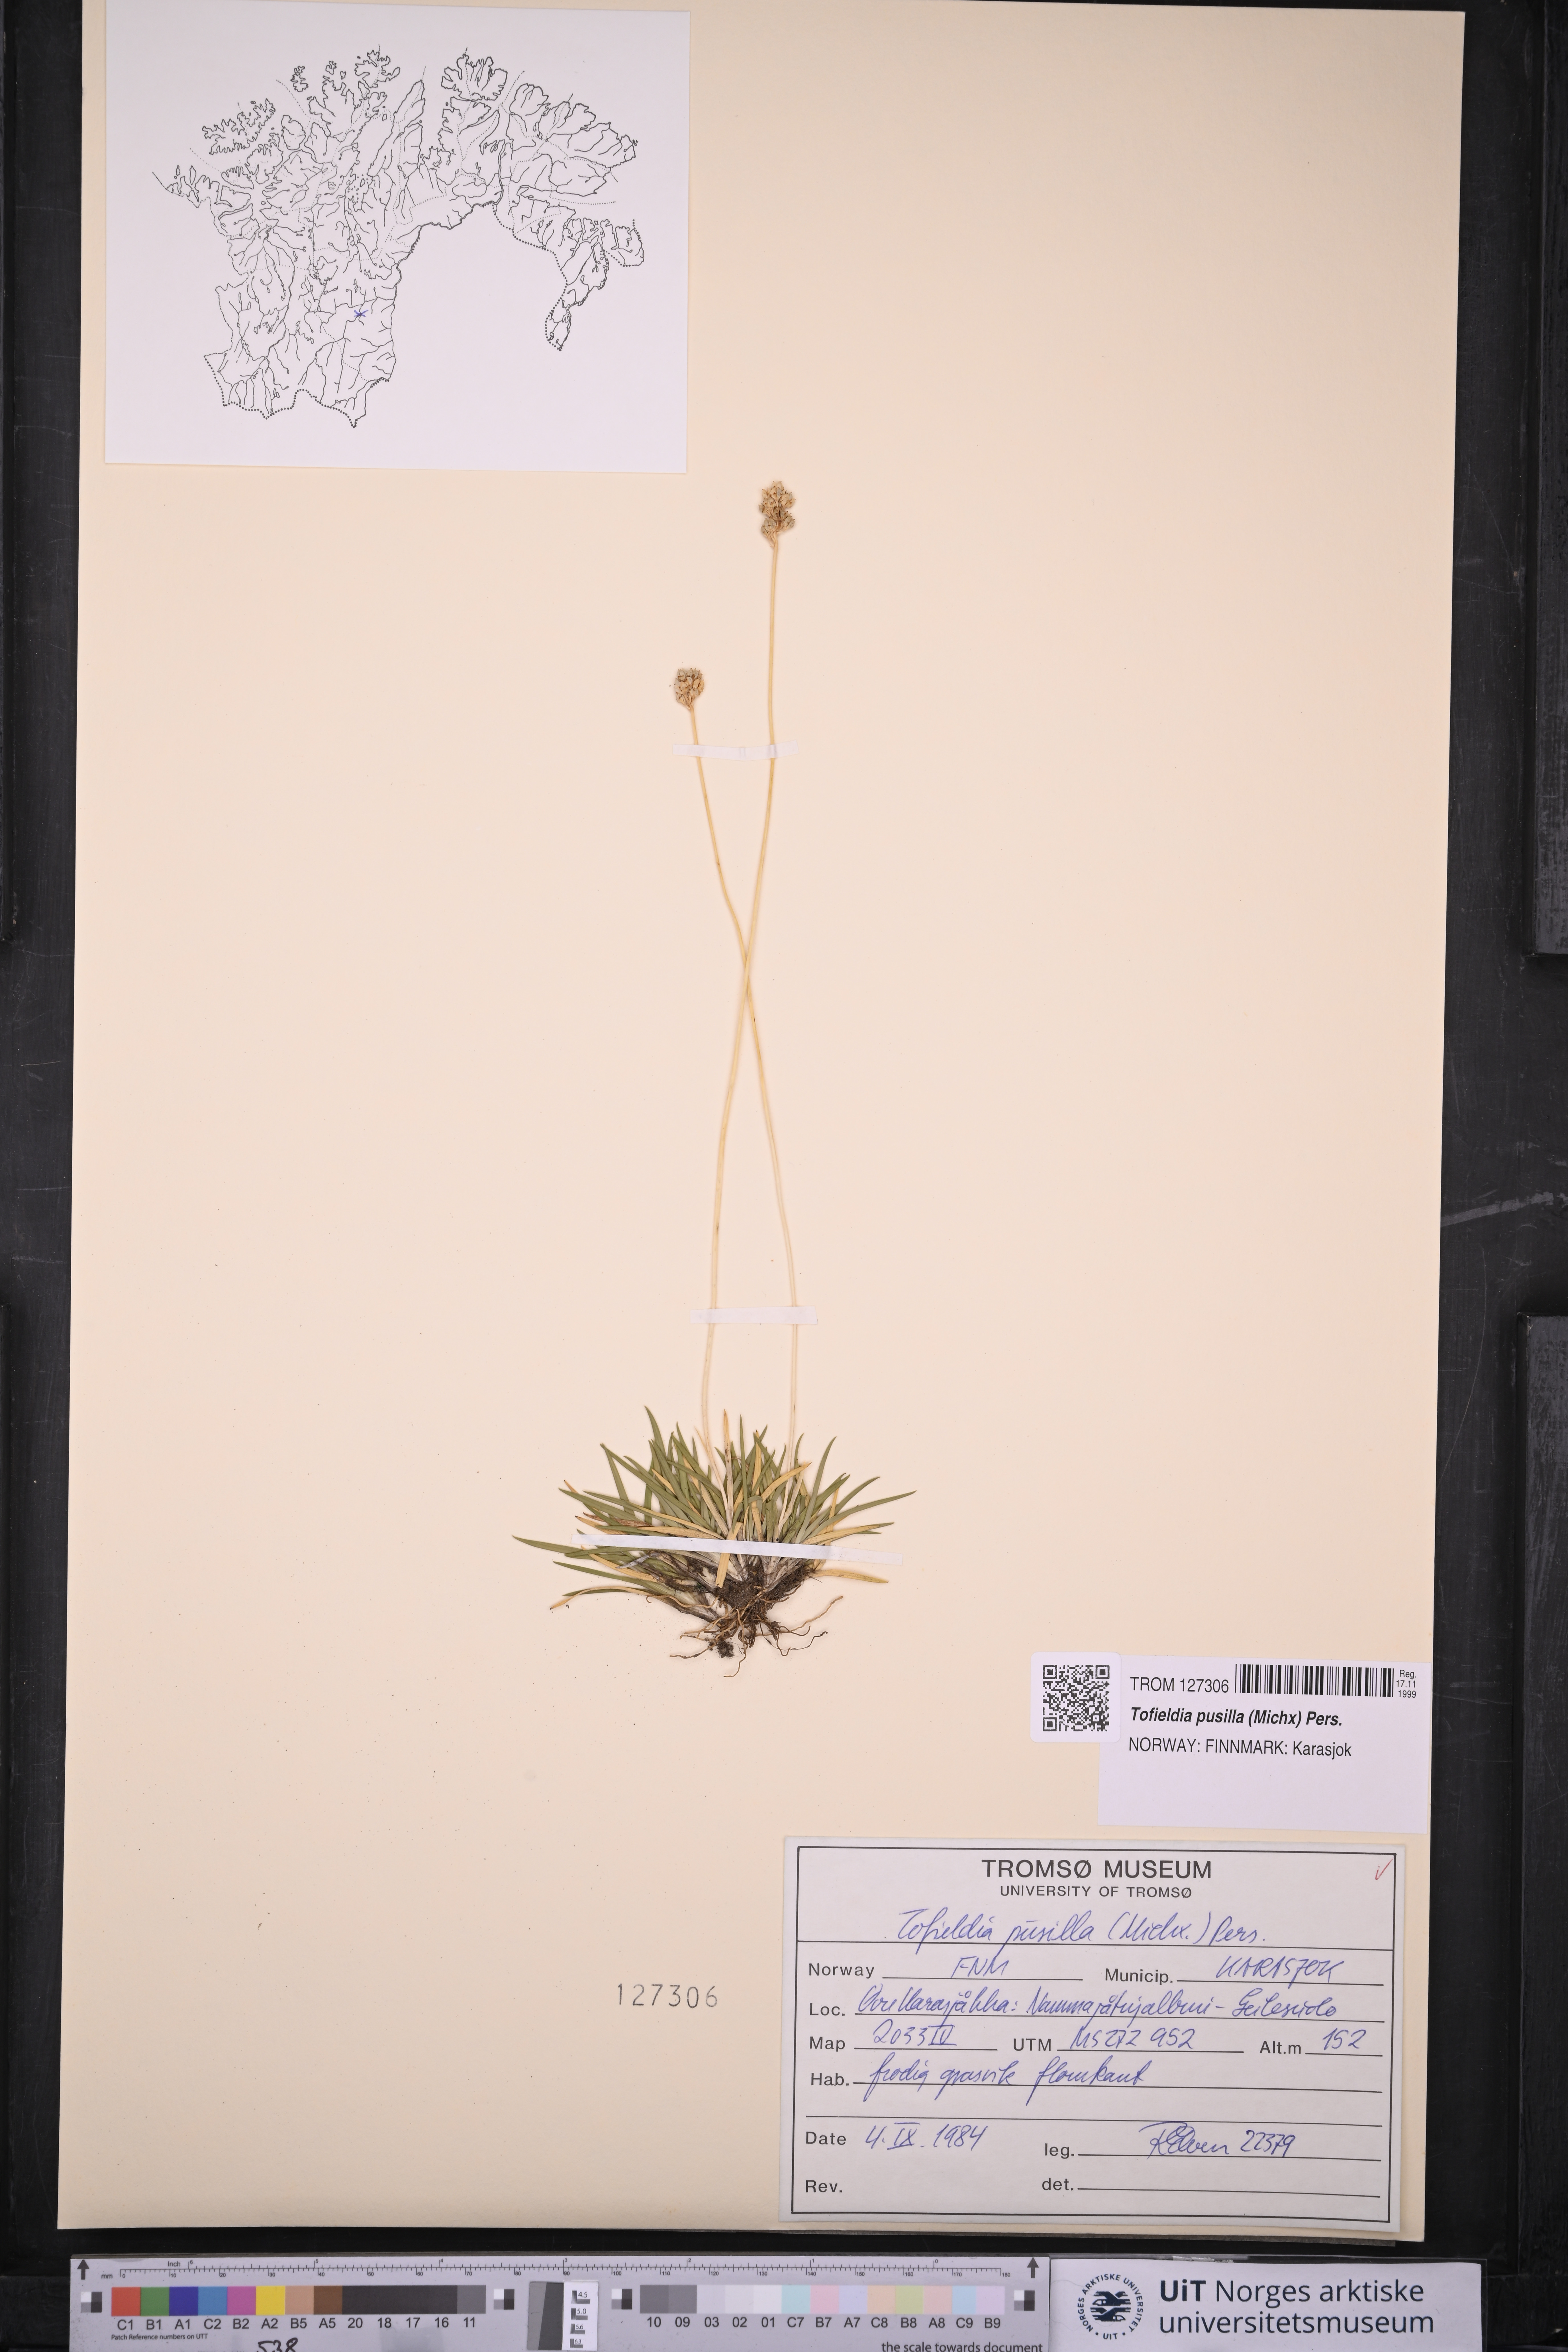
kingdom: Plantae
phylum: Tracheophyta
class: Liliopsida
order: Alismatales
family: Tofieldiaceae
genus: Tofieldia
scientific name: Tofieldia pusilla
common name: Scottish false asphodel
